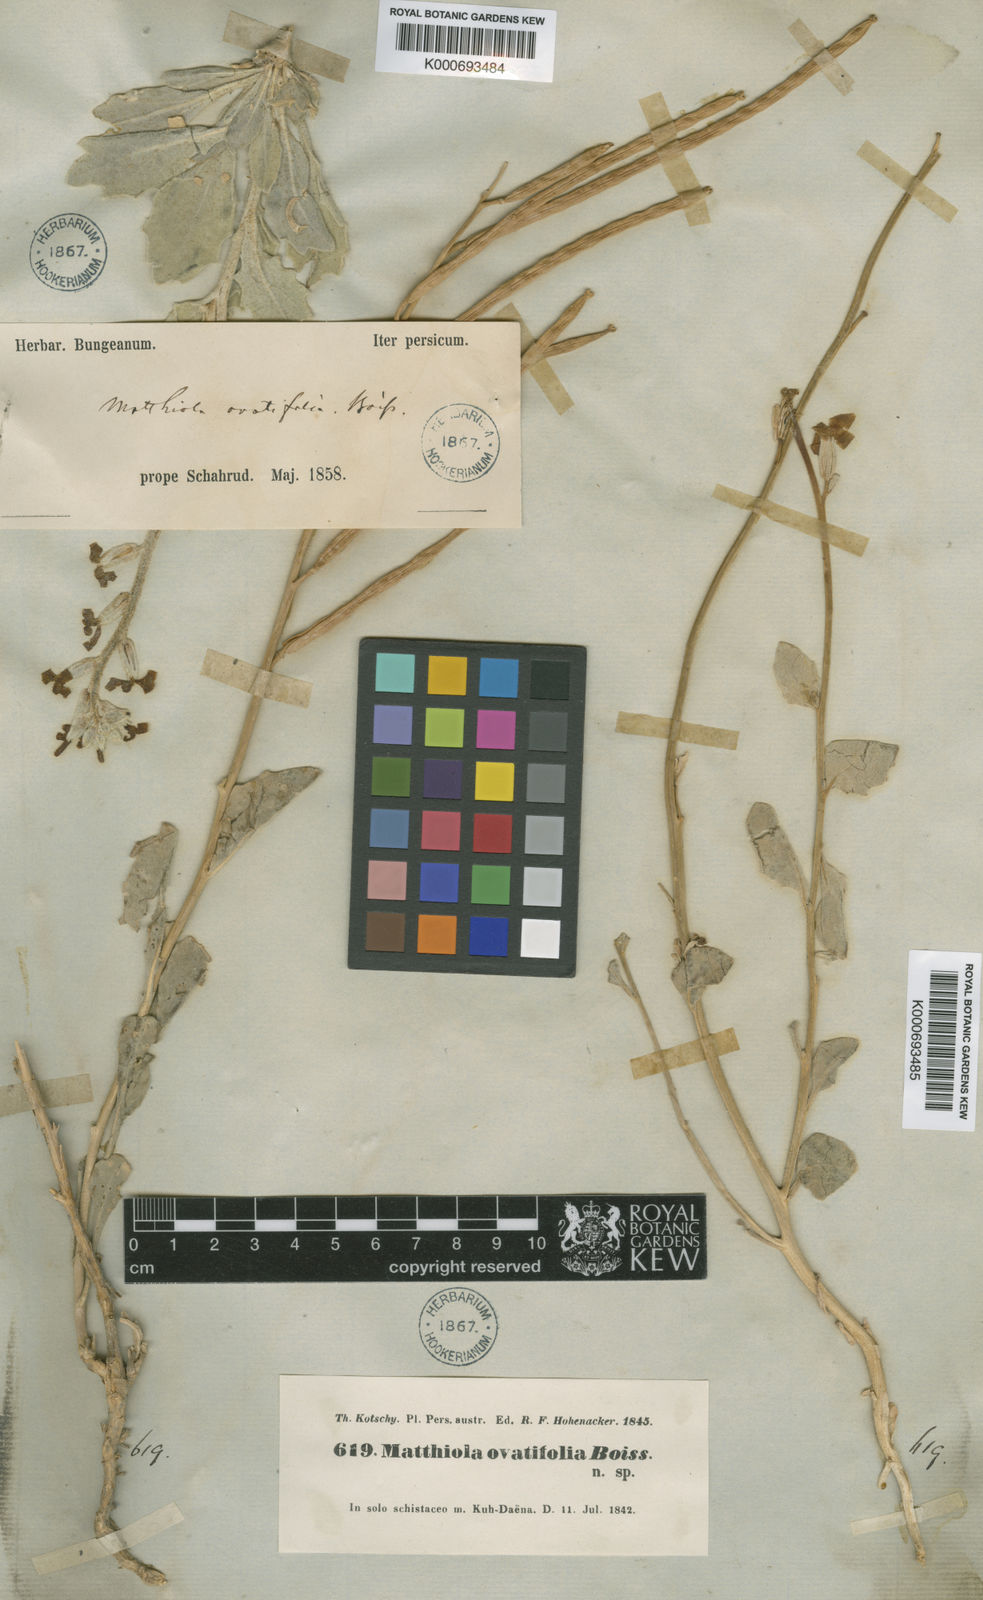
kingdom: Plantae
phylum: Tracheophyta
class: Magnoliopsida
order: Brassicales
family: Brassicaceae
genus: Matthiola
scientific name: Matthiola ovatifolia
